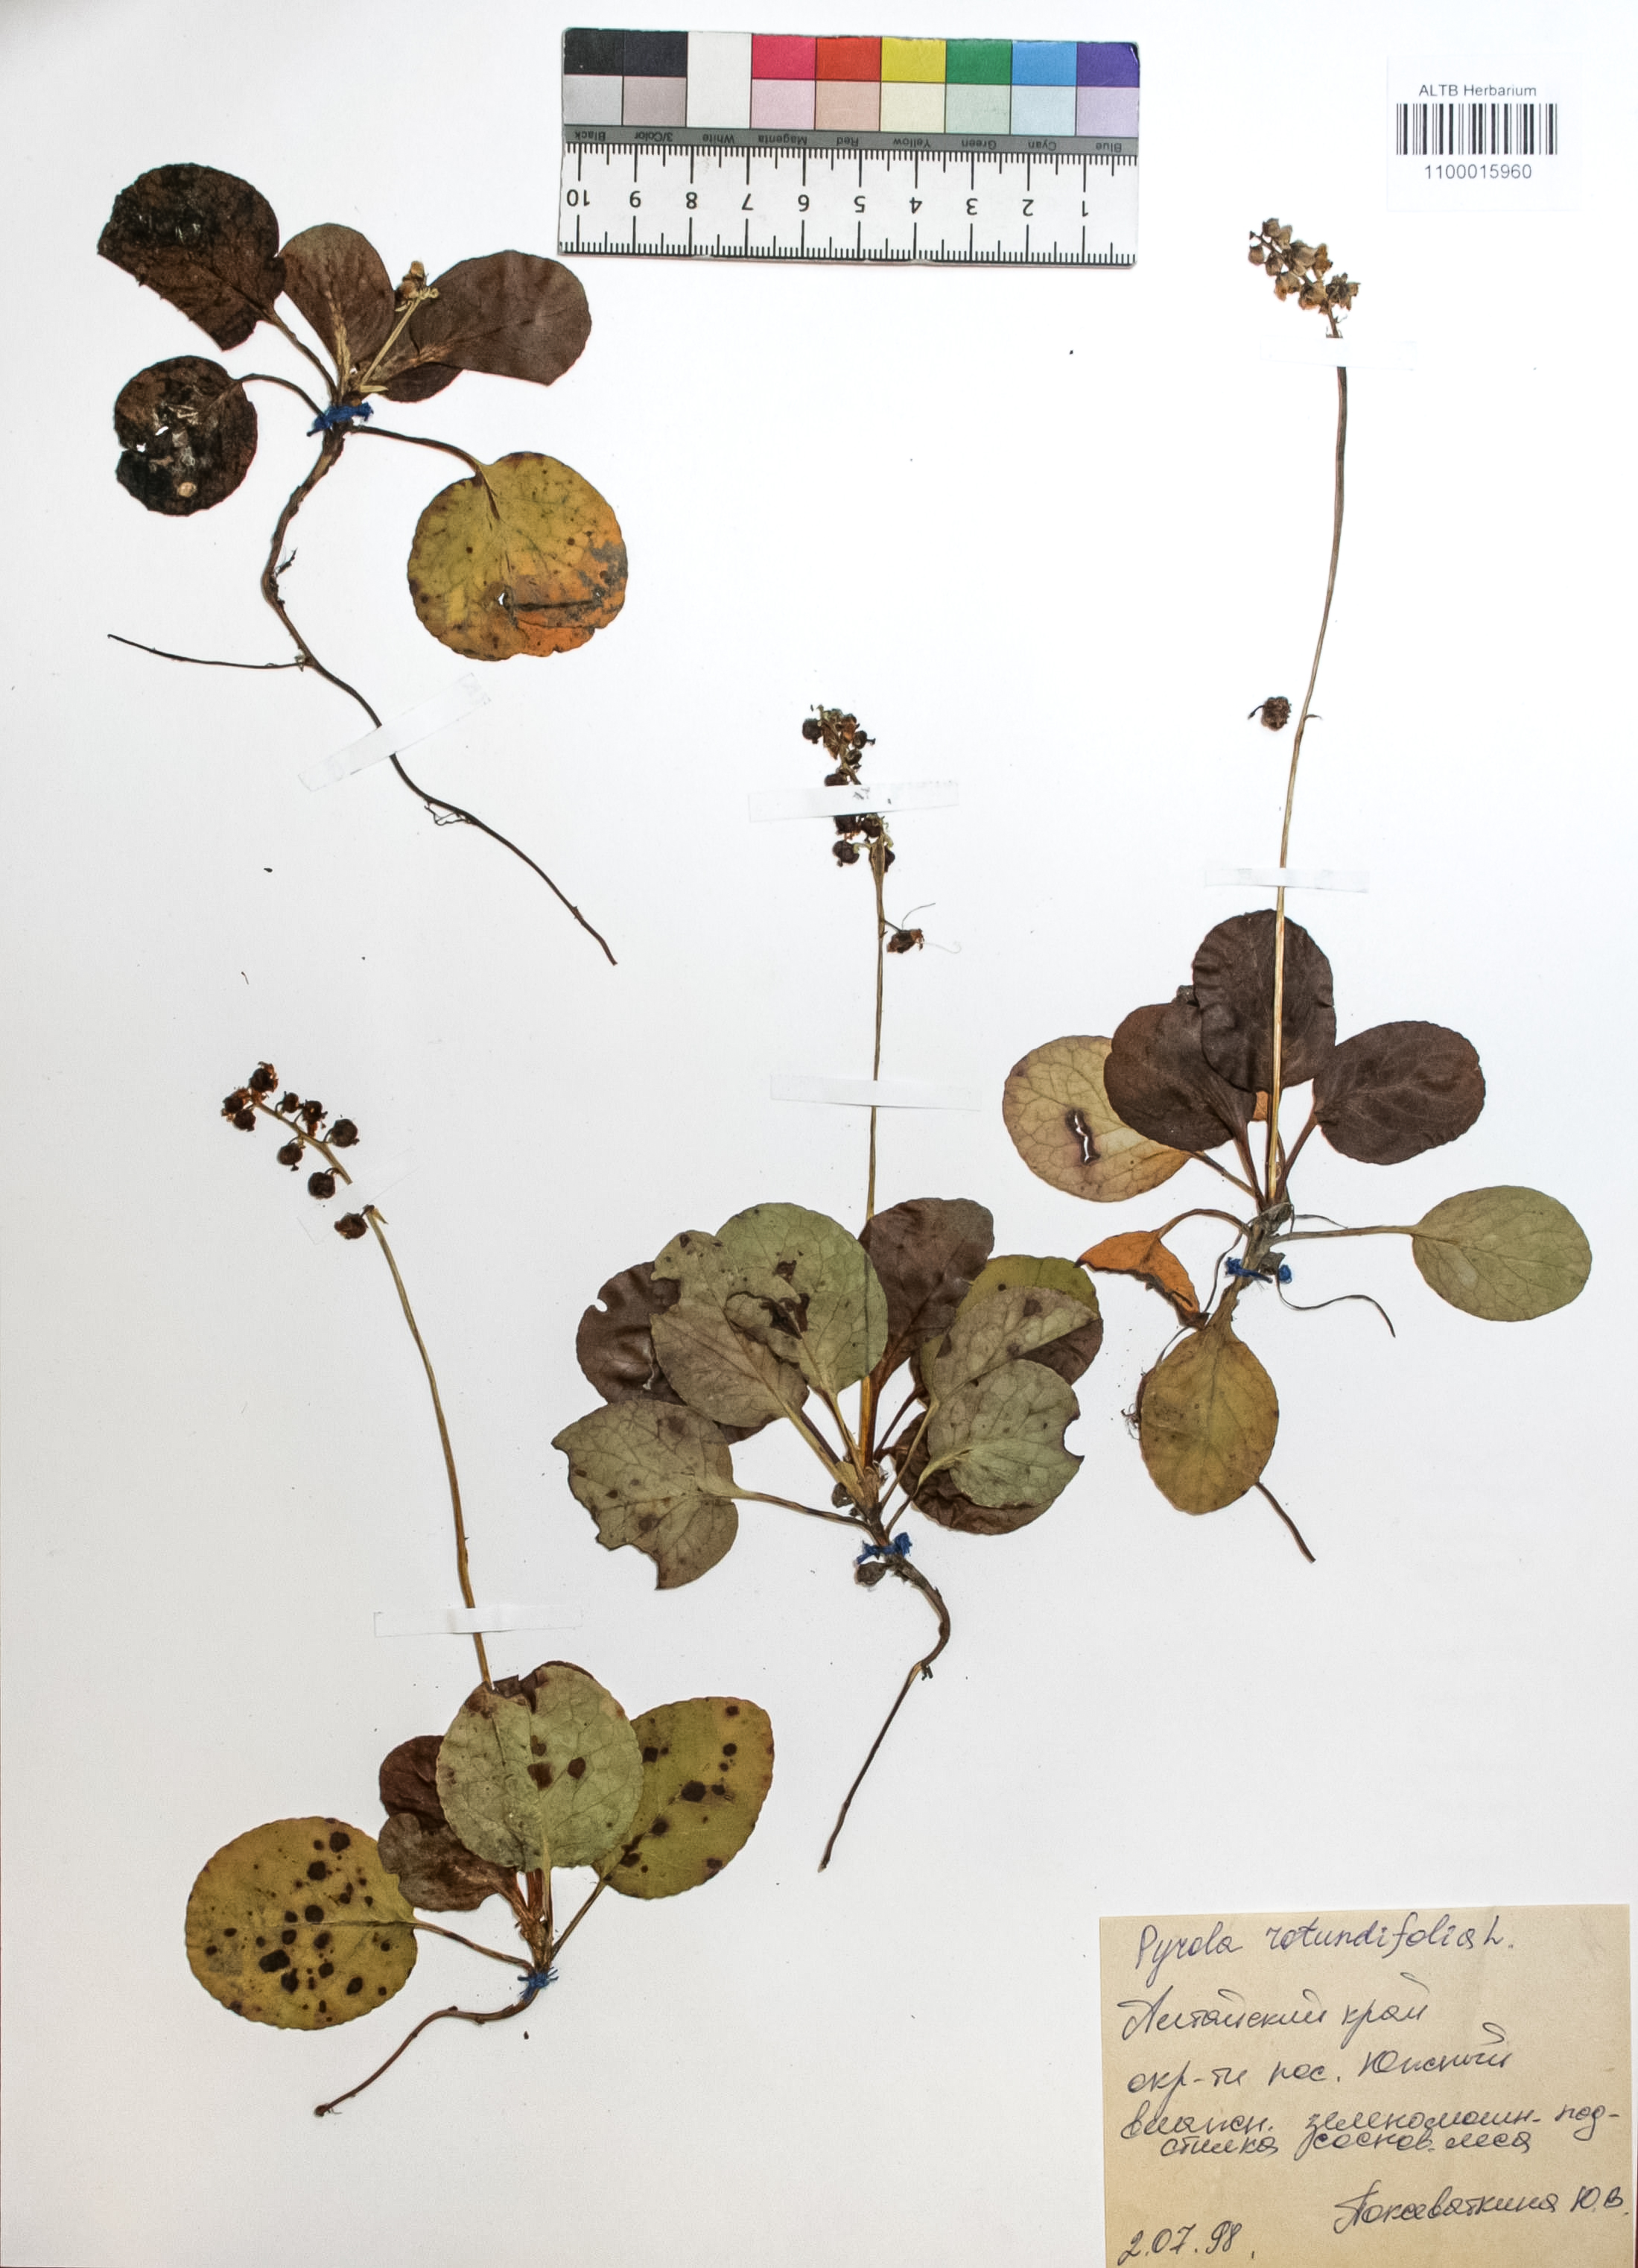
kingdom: Plantae
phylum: Tracheophyta
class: Magnoliopsida
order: Ericales
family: Ericaceae
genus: Pyrola
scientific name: Pyrola rotundifolia
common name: Round-leaved wintergreen
